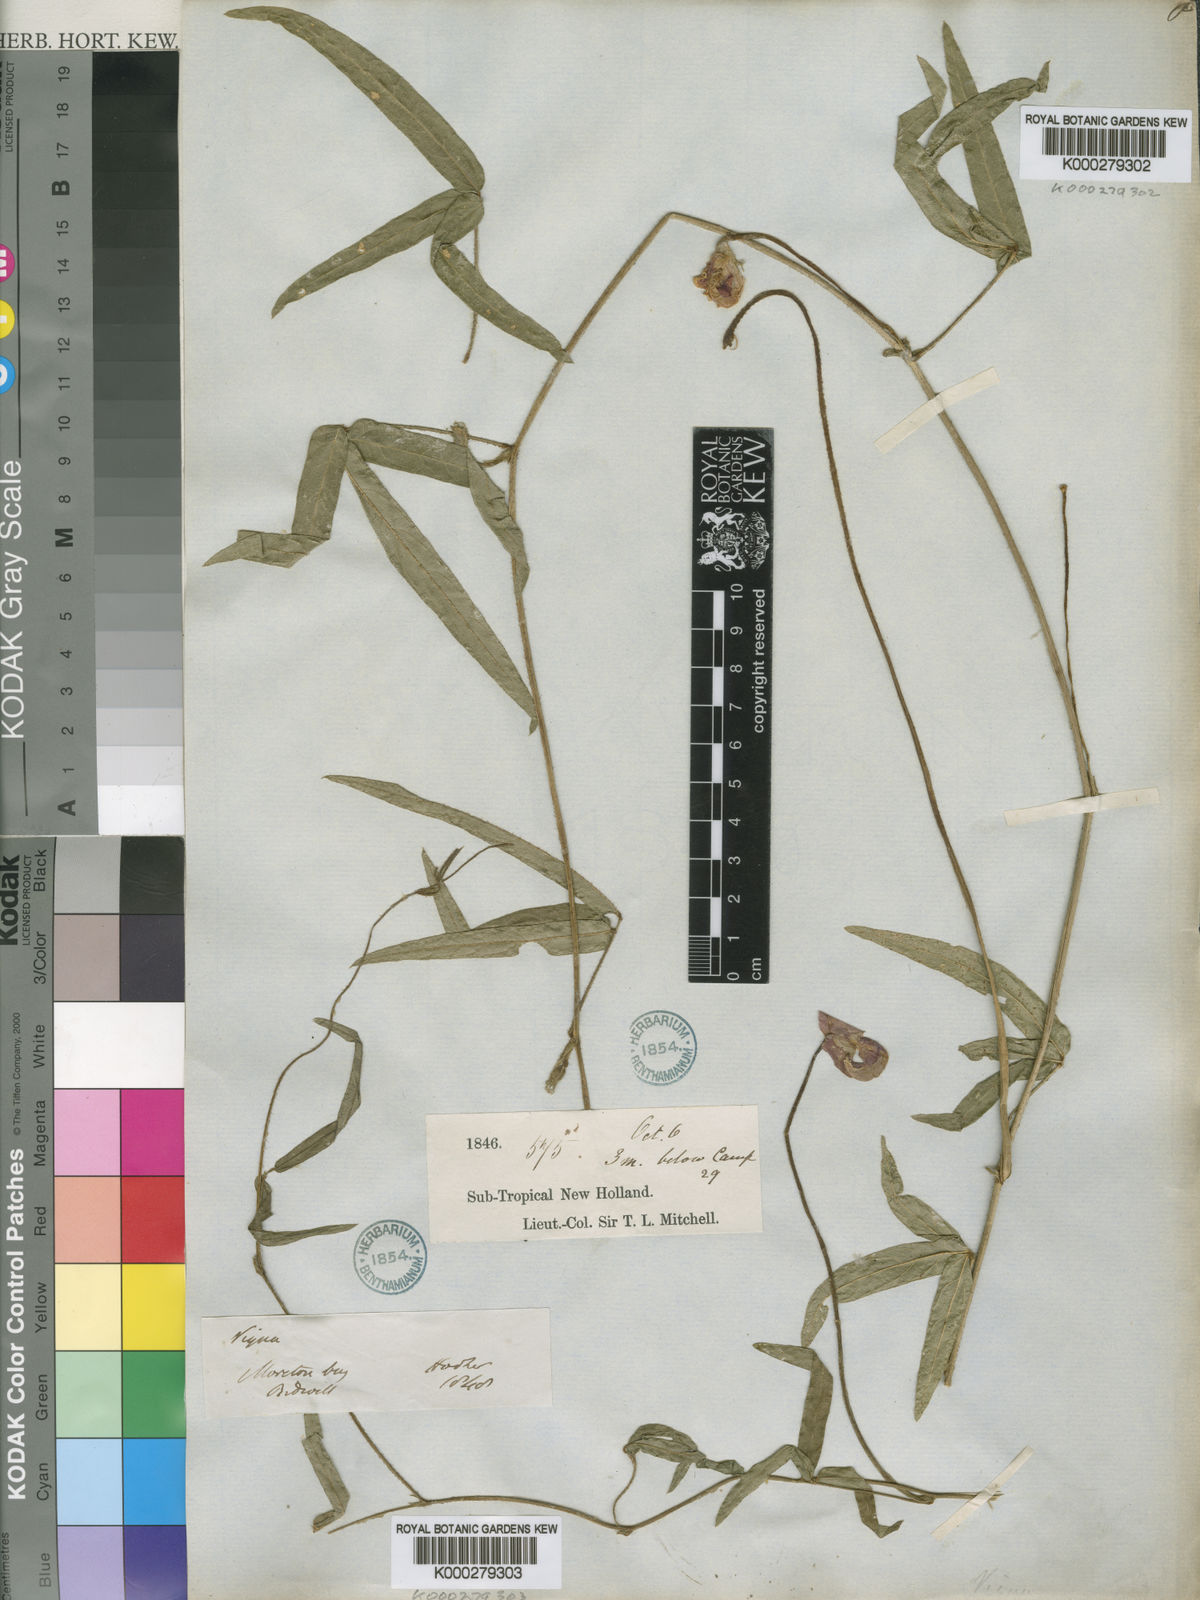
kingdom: Plantae
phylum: Tracheophyta
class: Magnoliopsida
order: Fabales
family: Fabaceae
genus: Vigna
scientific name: Vigna
